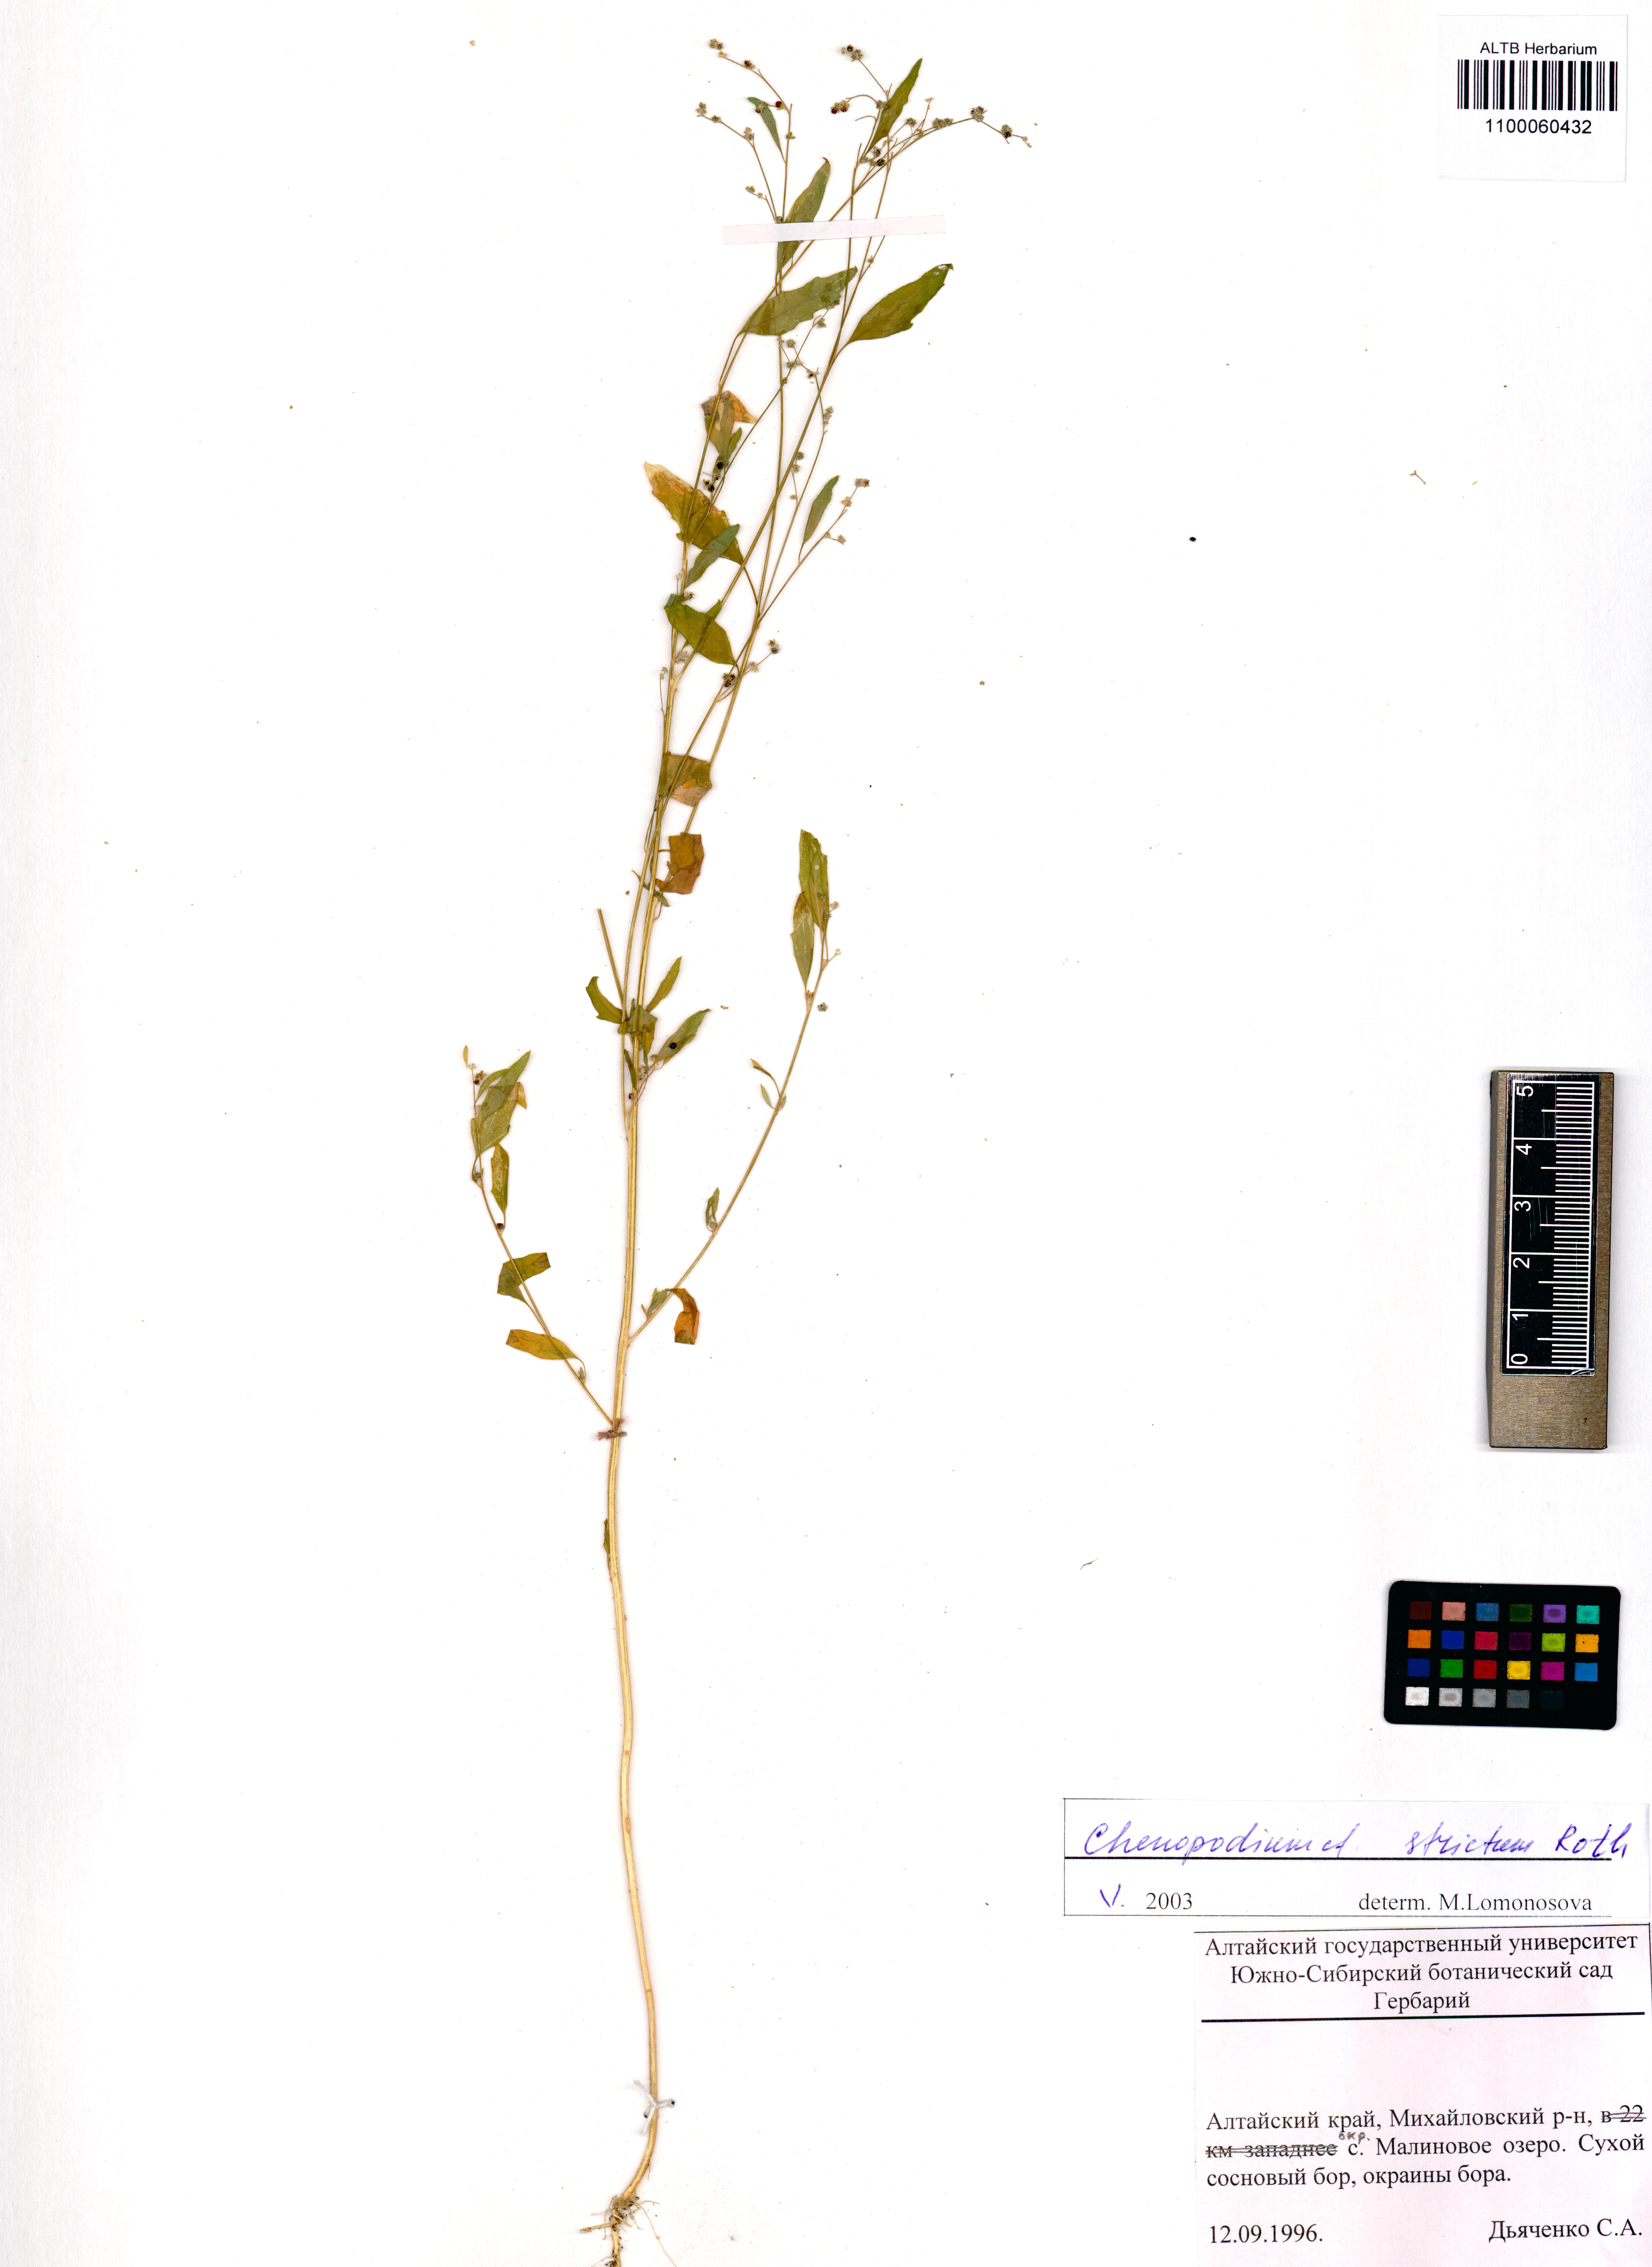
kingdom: Plantae
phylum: Tracheophyta
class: Magnoliopsida
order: Caryophyllales
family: Amaranthaceae
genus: Chenopodium
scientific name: Chenopodium album
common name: Fat-hen
